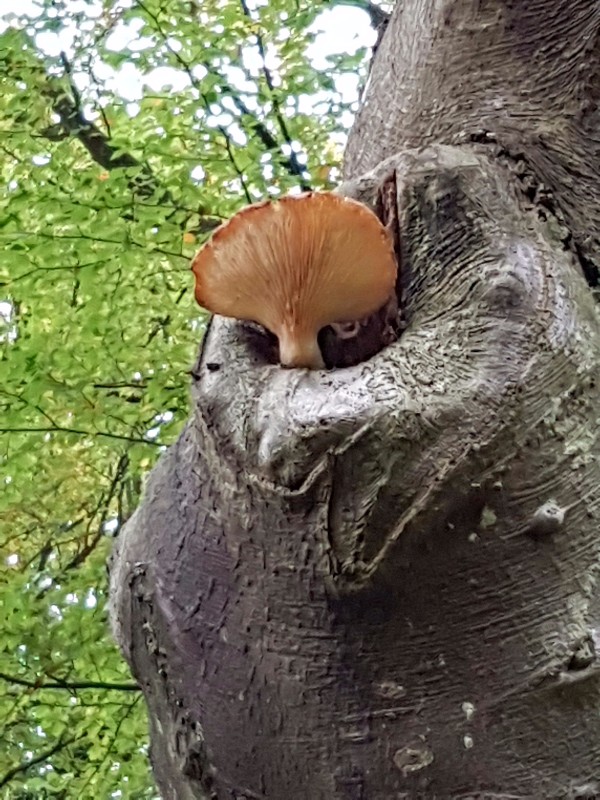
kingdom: Fungi
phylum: Basidiomycota
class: Agaricomycetes
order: Agaricales
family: Pleurotaceae
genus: Pleurotus
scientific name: Pleurotus dryinus
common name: korkagtig østershat
